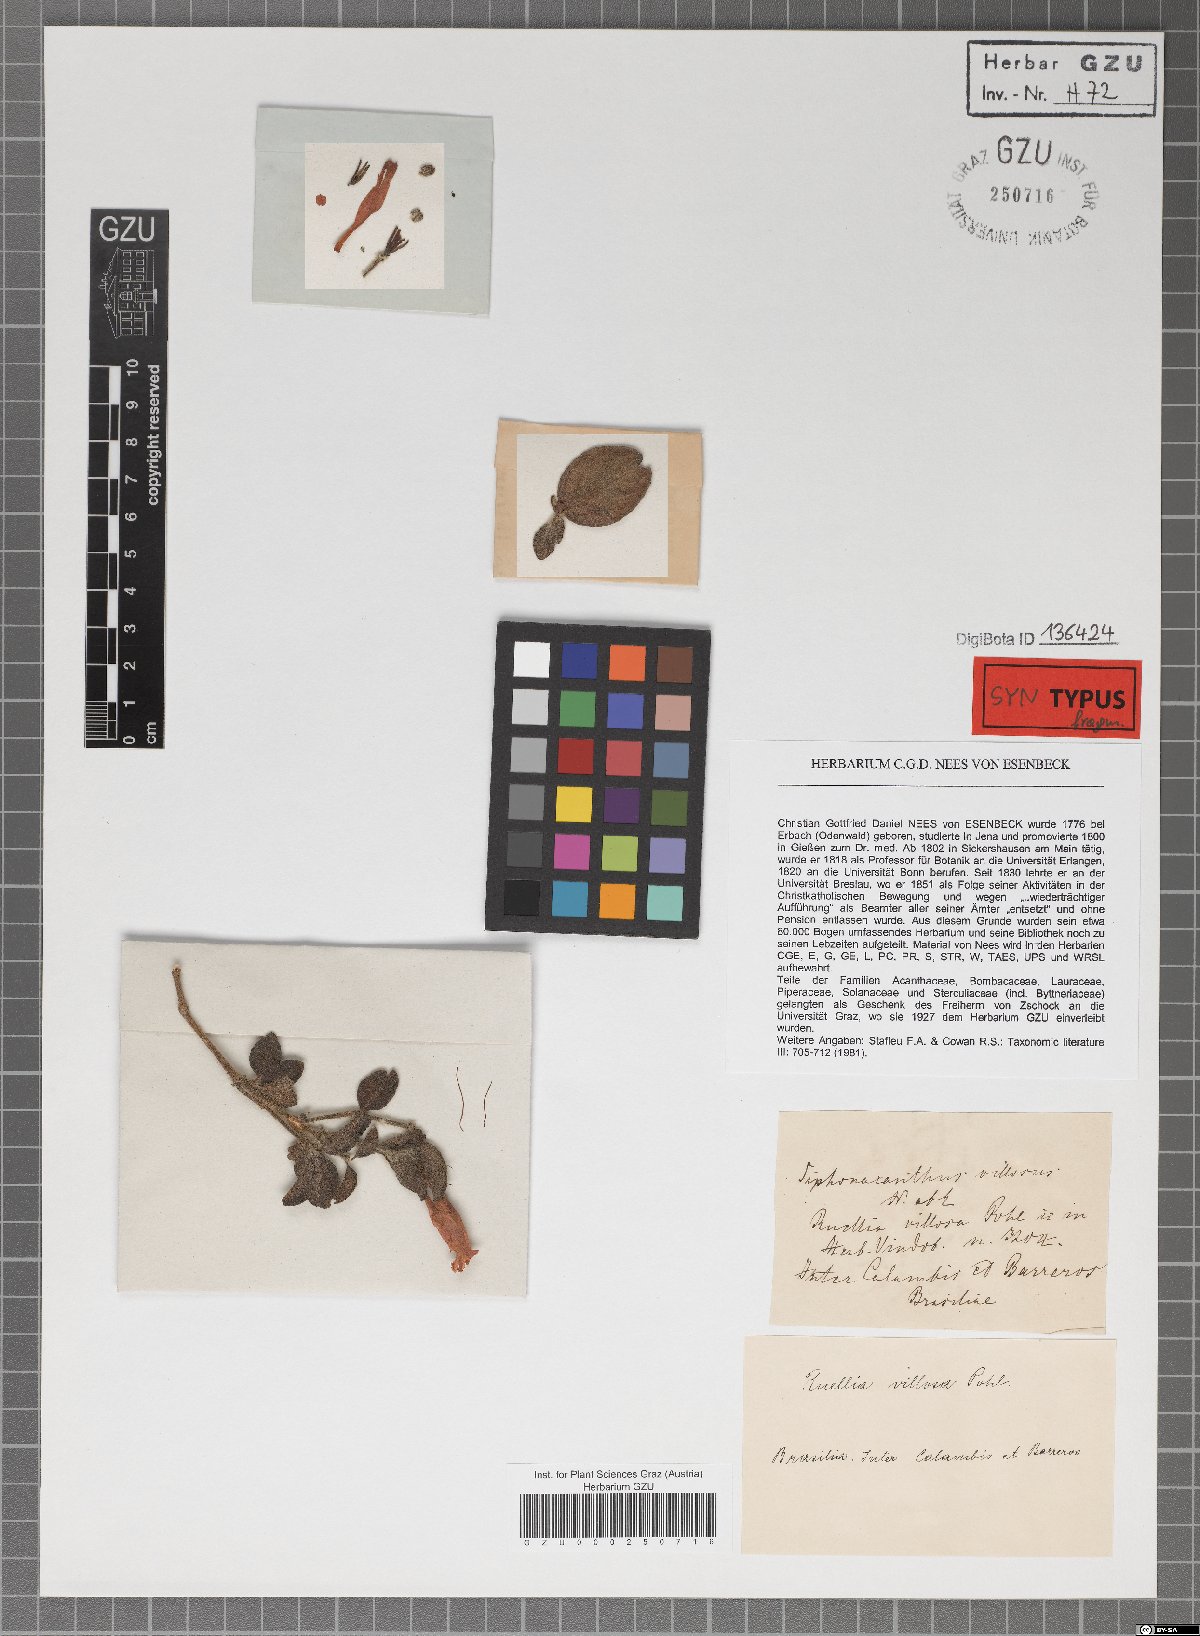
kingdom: Plantae
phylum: Tracheophyta
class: Magnoliopsida
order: Lamiales
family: Acanthaceae
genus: Ruellia
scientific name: Ruellia villosa
